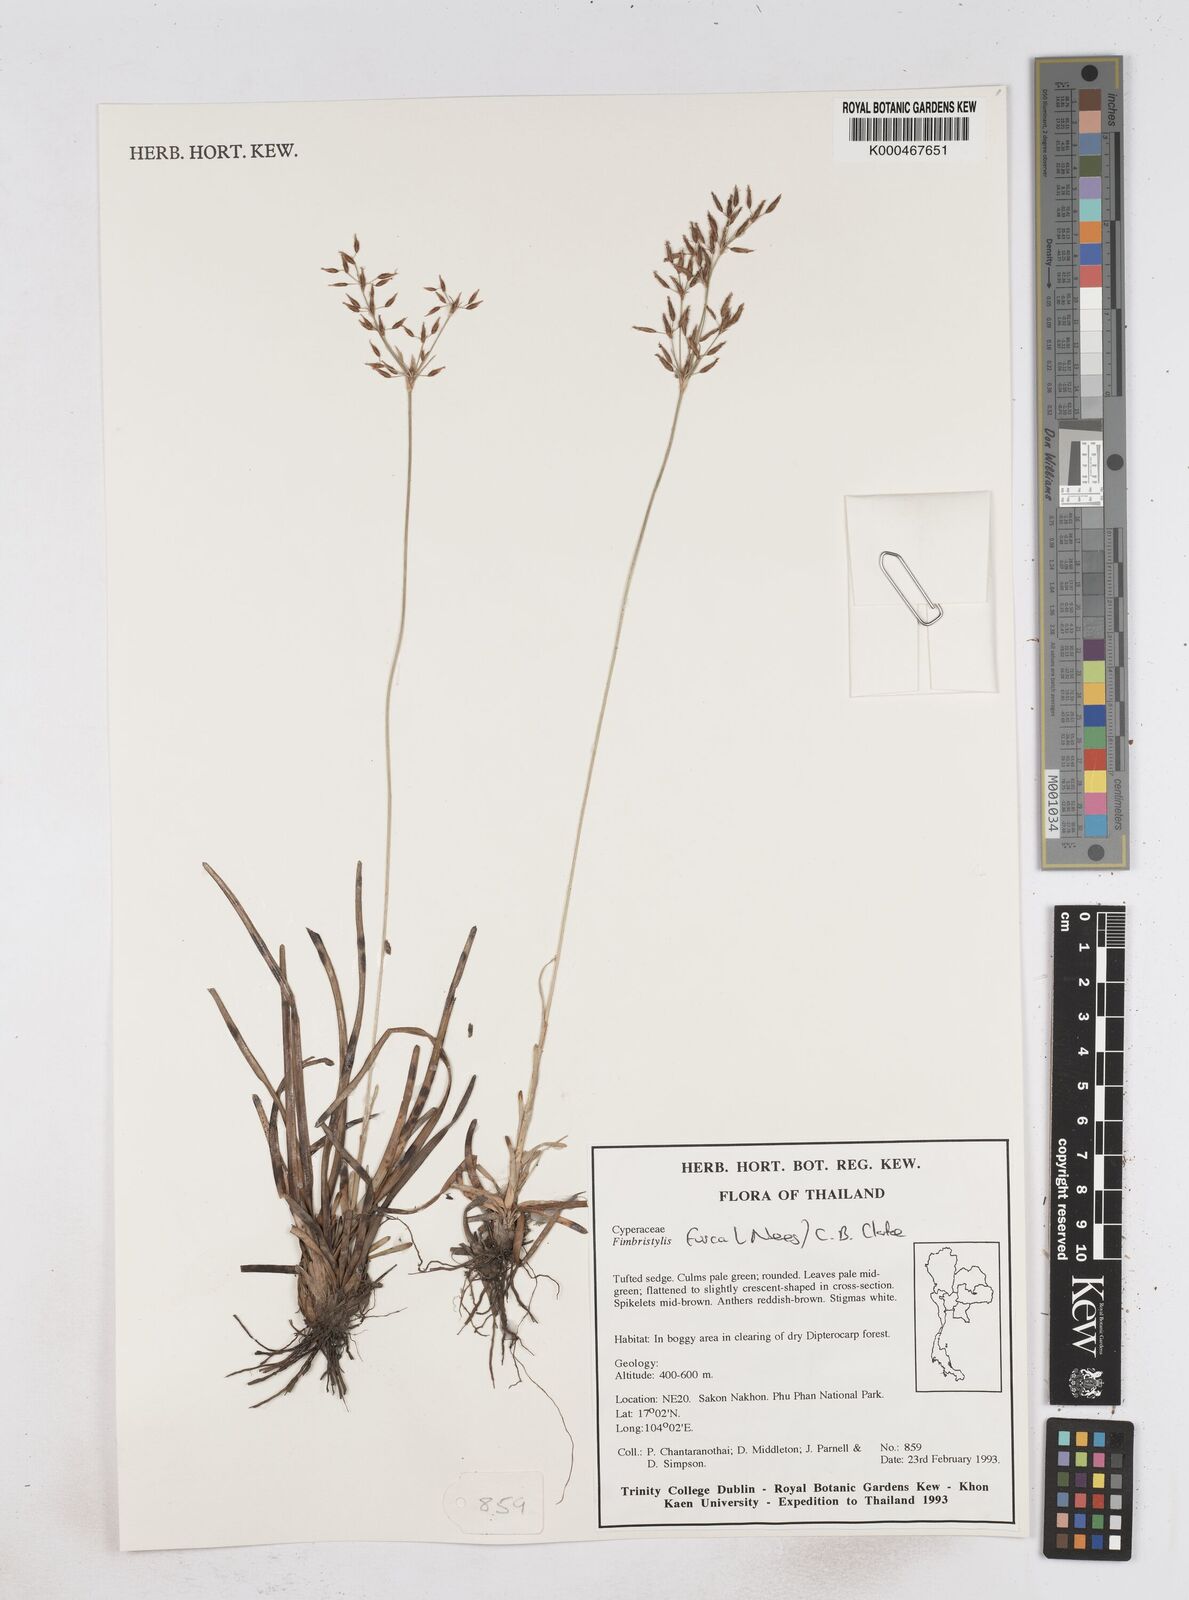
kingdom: Plantae
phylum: Tracheophyta
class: Liliopsida
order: Poales
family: Cyperaceae
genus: Fimbristylis
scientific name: Fimbristylis fusca
